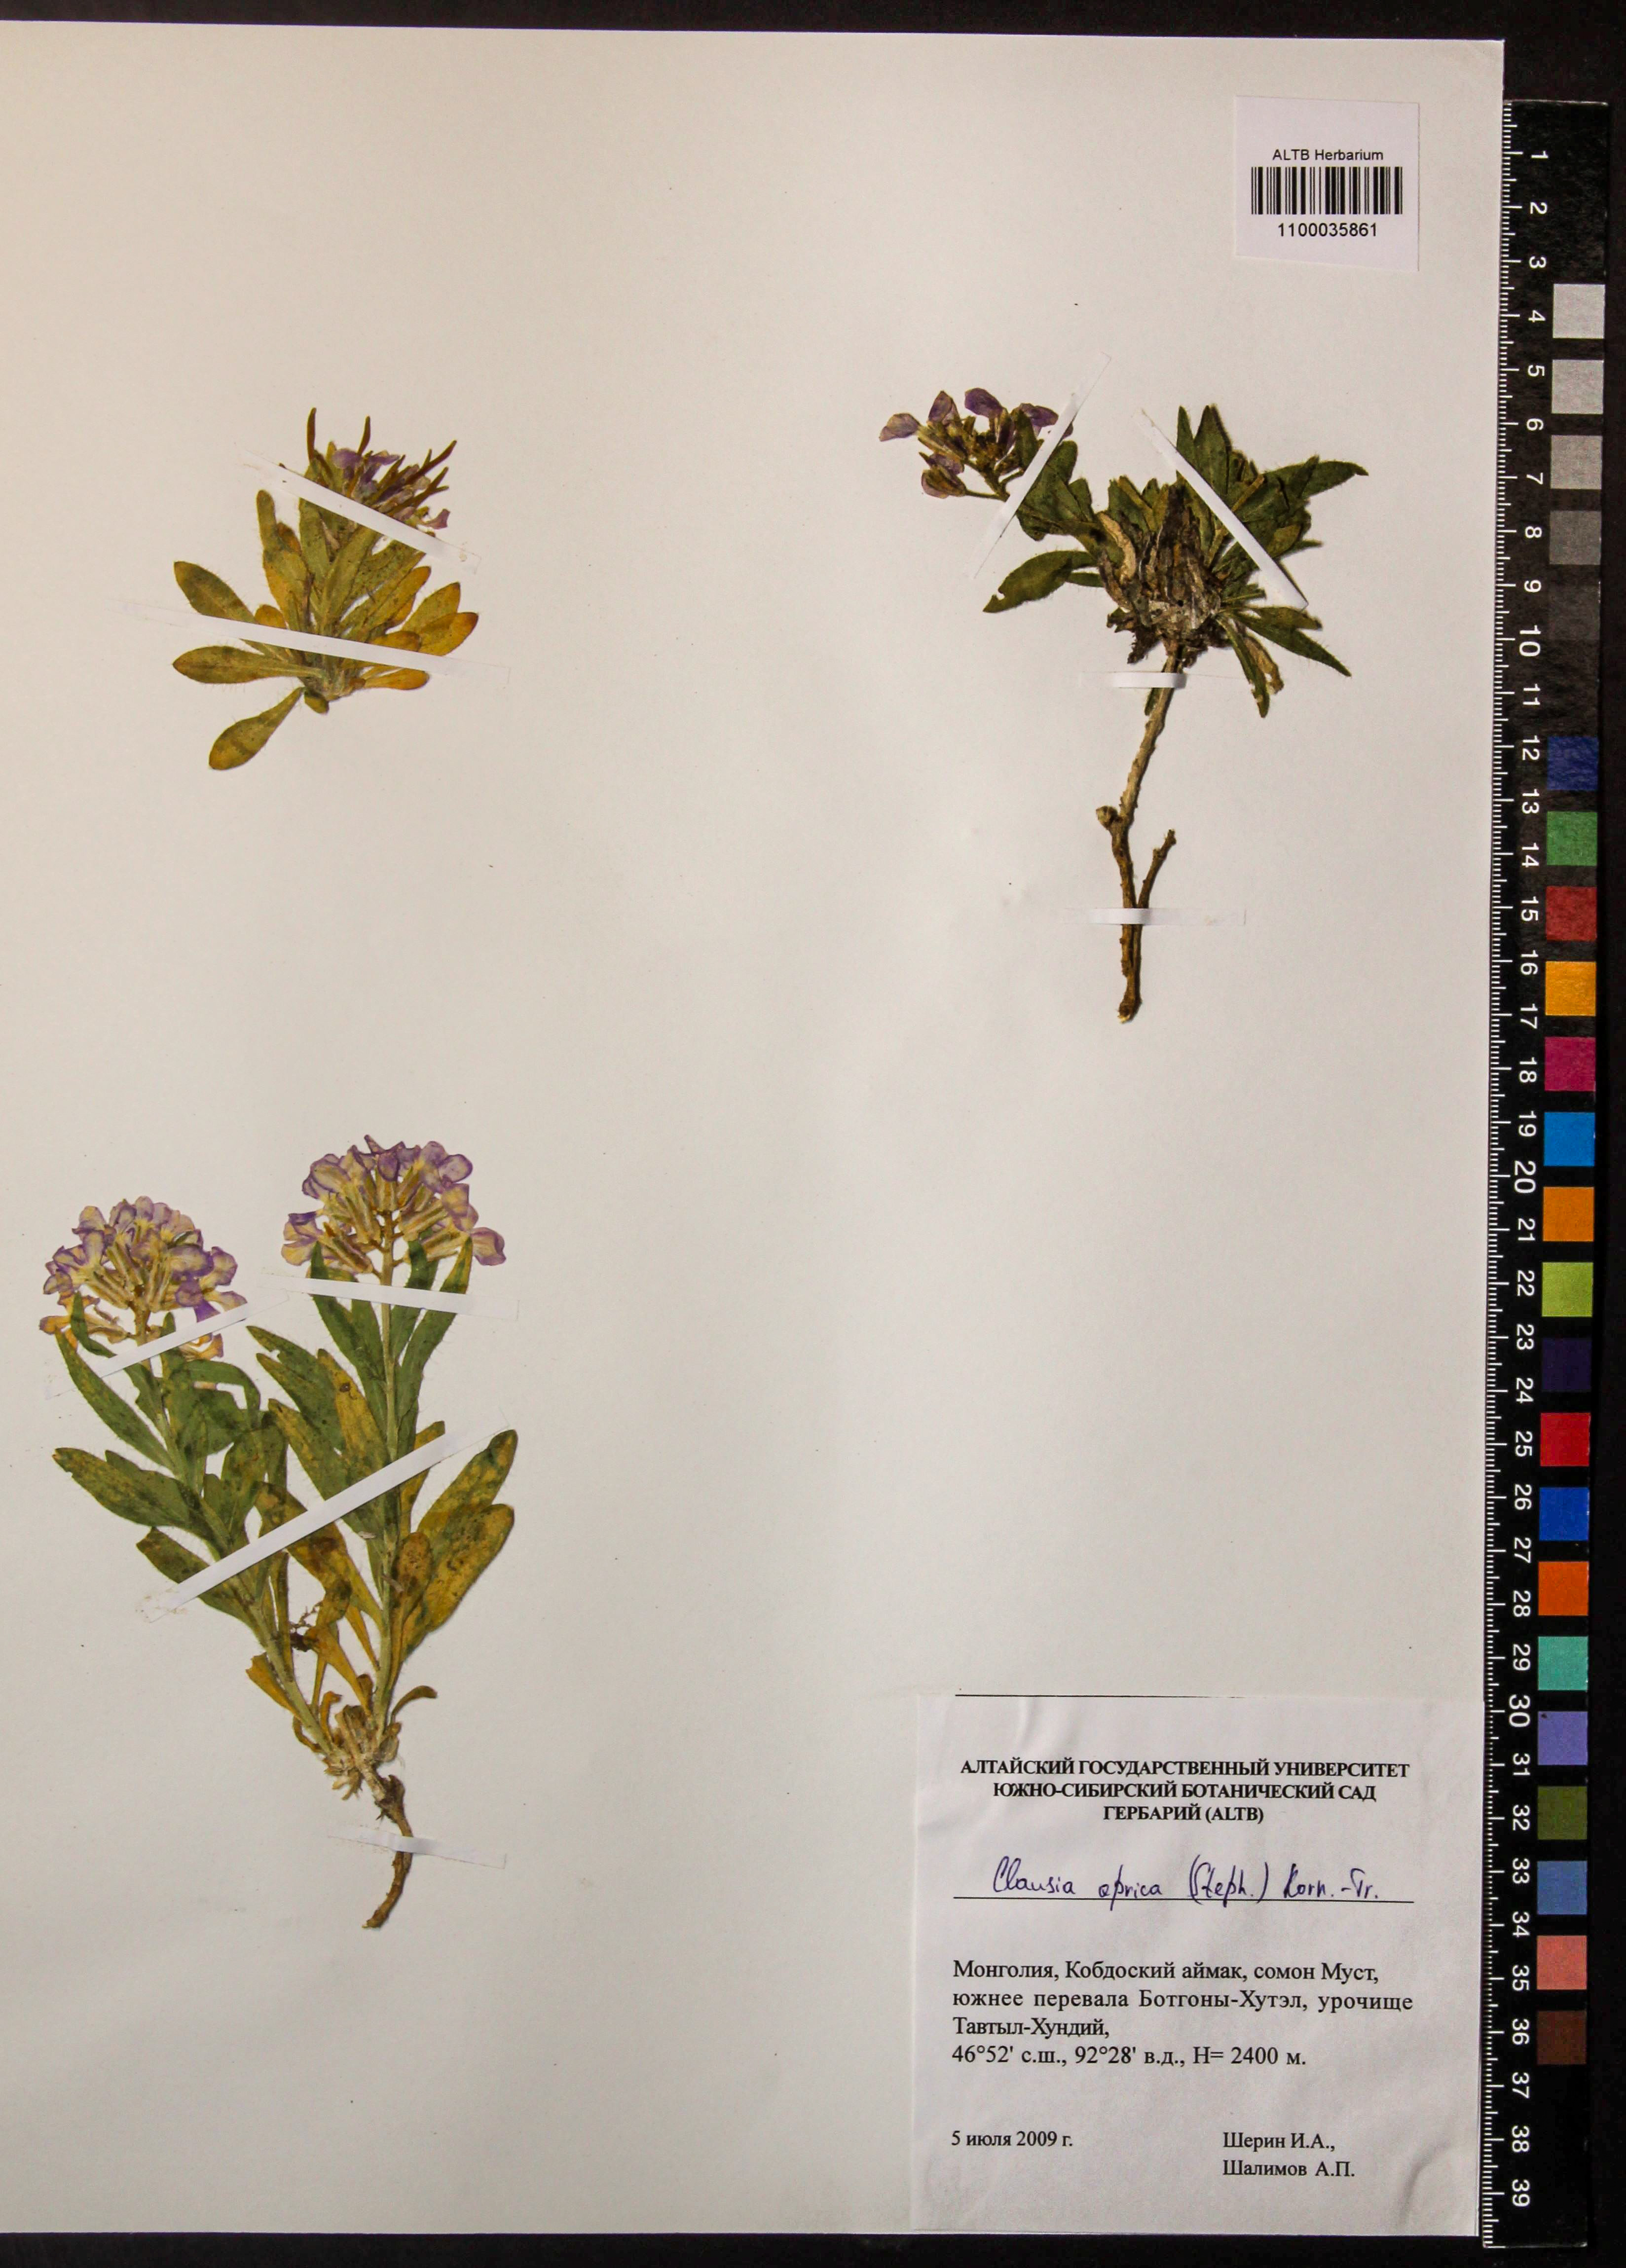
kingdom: Plantae
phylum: Tracheophyta
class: Magnoliopsida
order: Brassicales
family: Brassicaceae
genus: Clausia
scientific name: Clausia aprica
